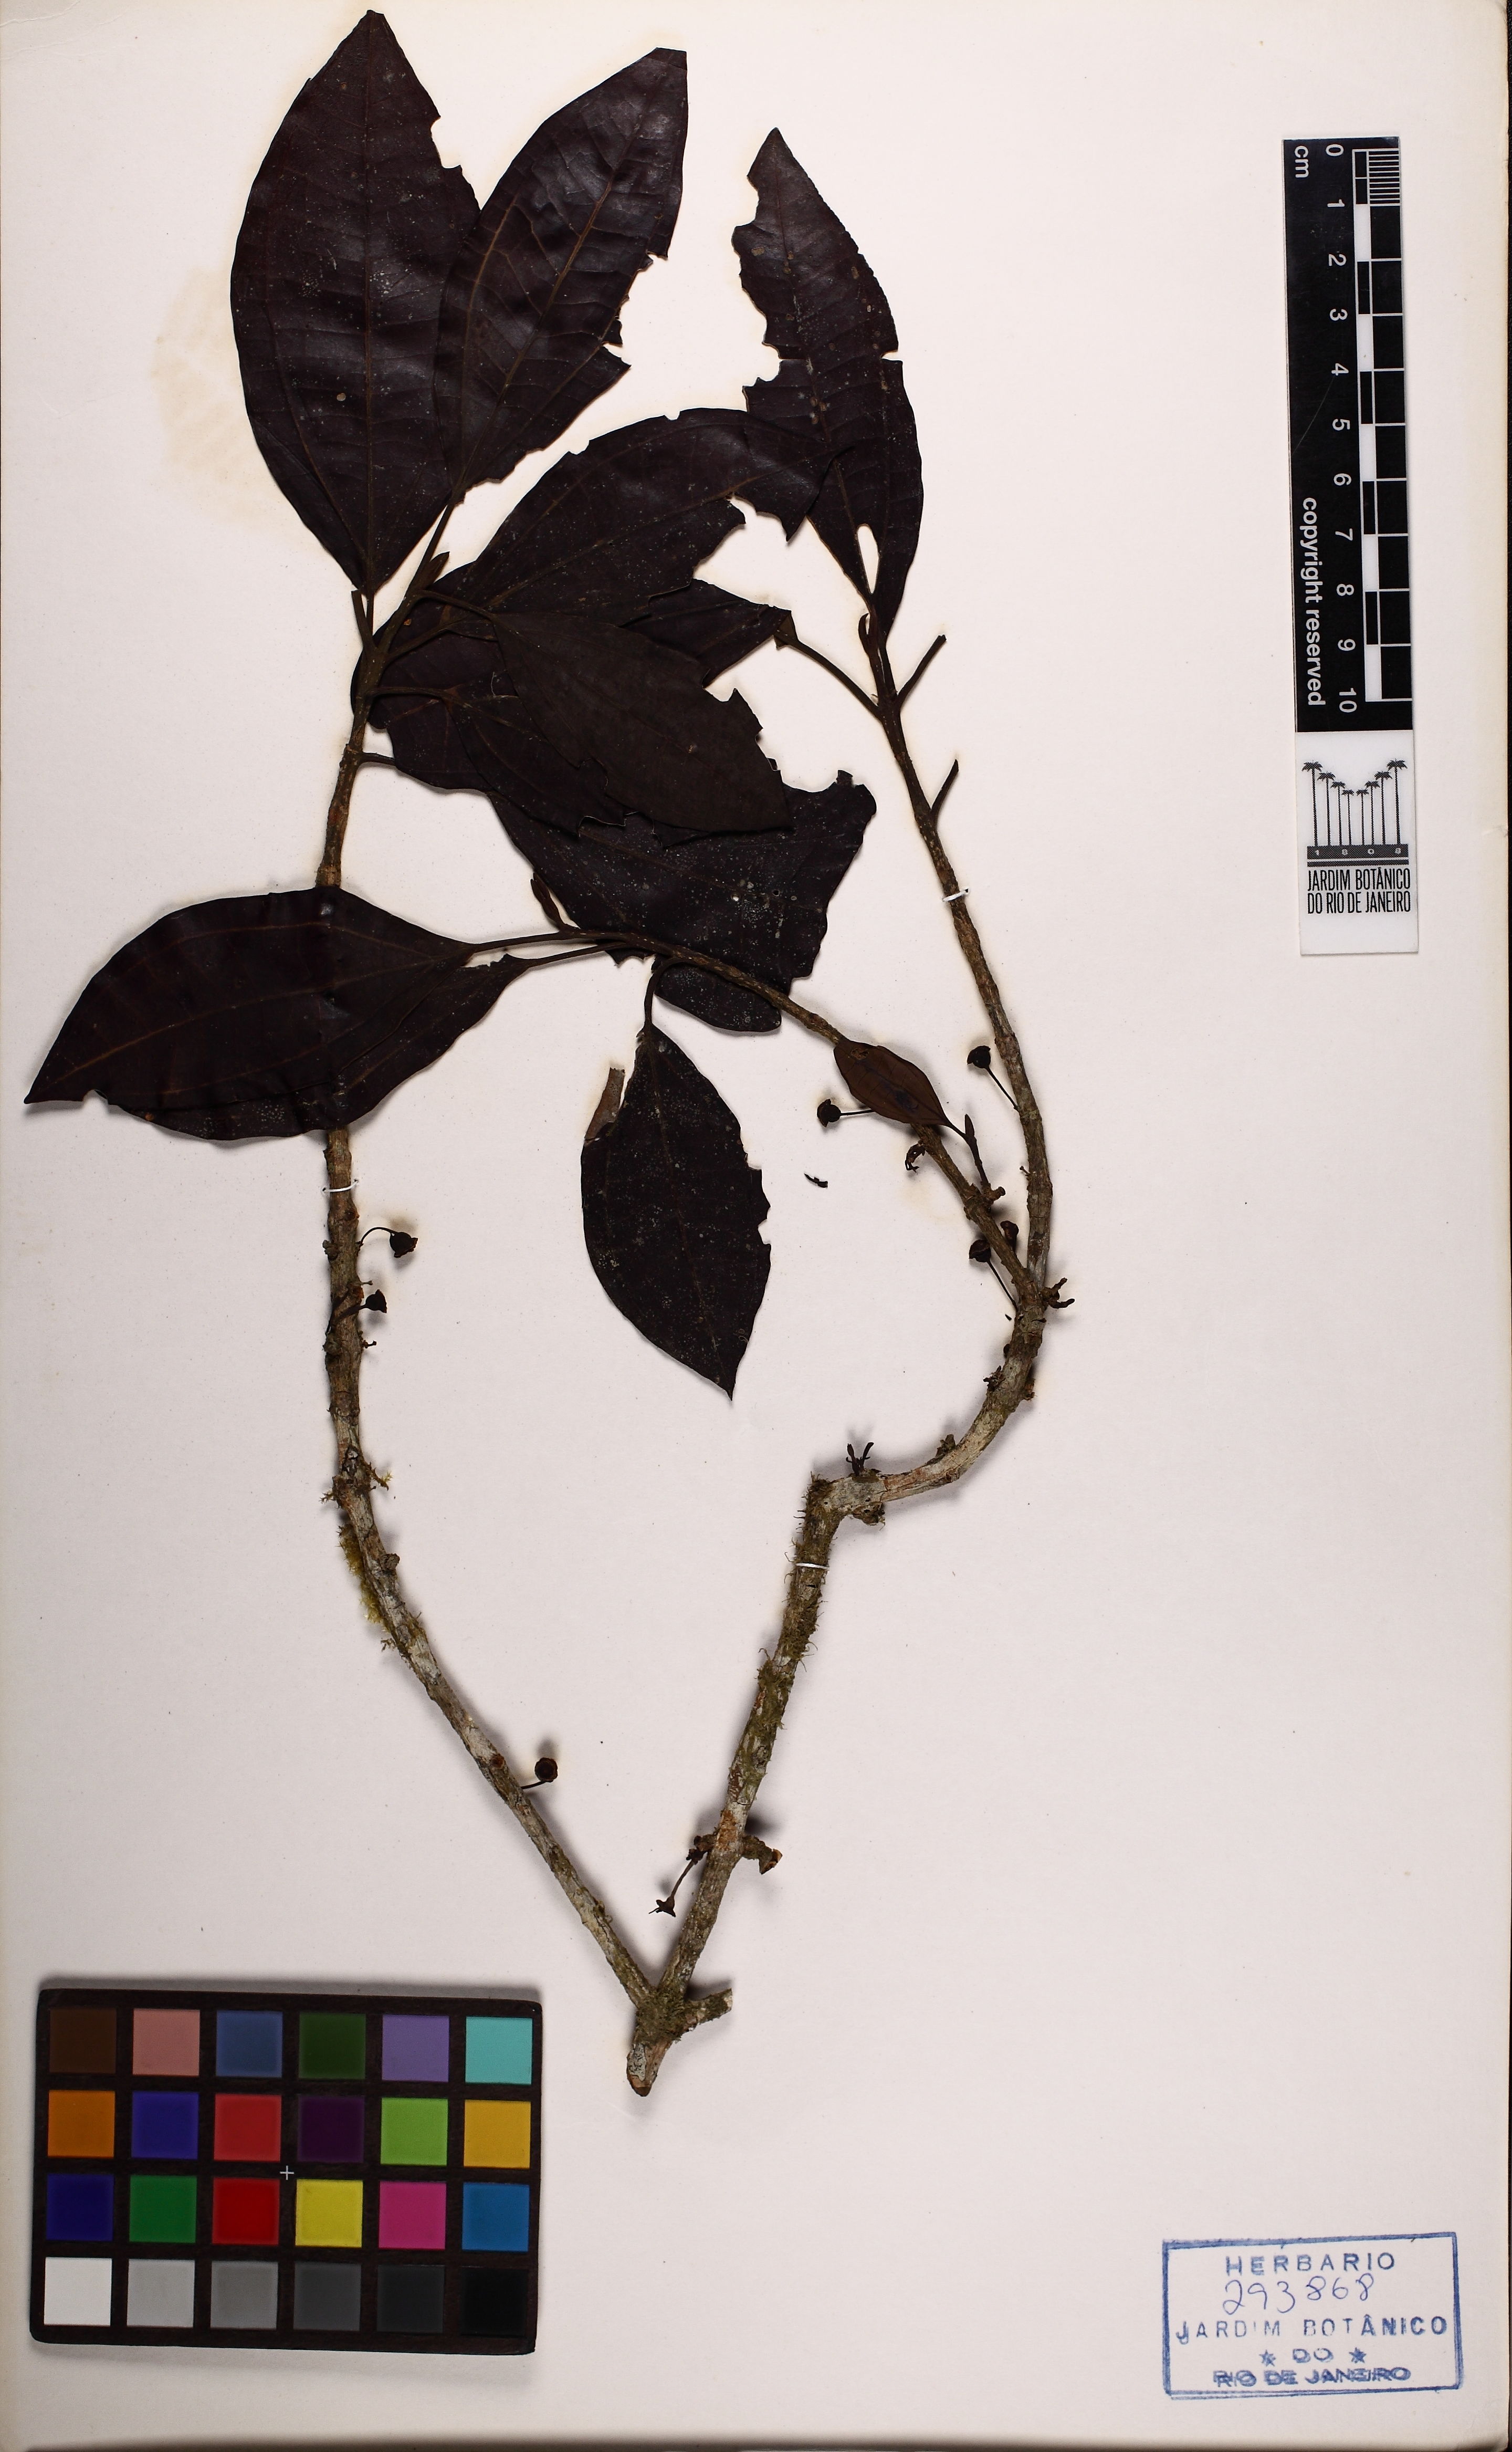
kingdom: Plantae
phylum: Tracheophyta
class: Magnoliopsida
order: Myrtales
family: Melastomataceae
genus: Henriettea
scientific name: Henriettea umbelluliflora
